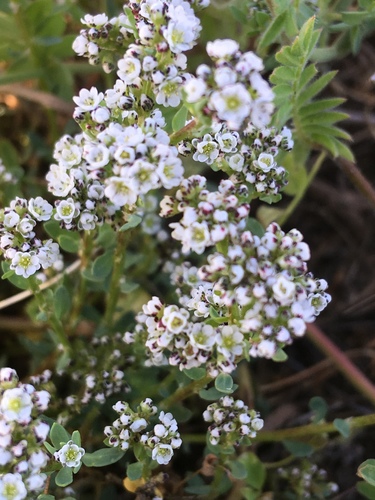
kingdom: Plantae
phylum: Tracheophyta
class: Magnoliopsida
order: Caryophyllales
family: Caryophyllaceae
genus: Corrigiola
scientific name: Corrigiola litoralis
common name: Strapwort
